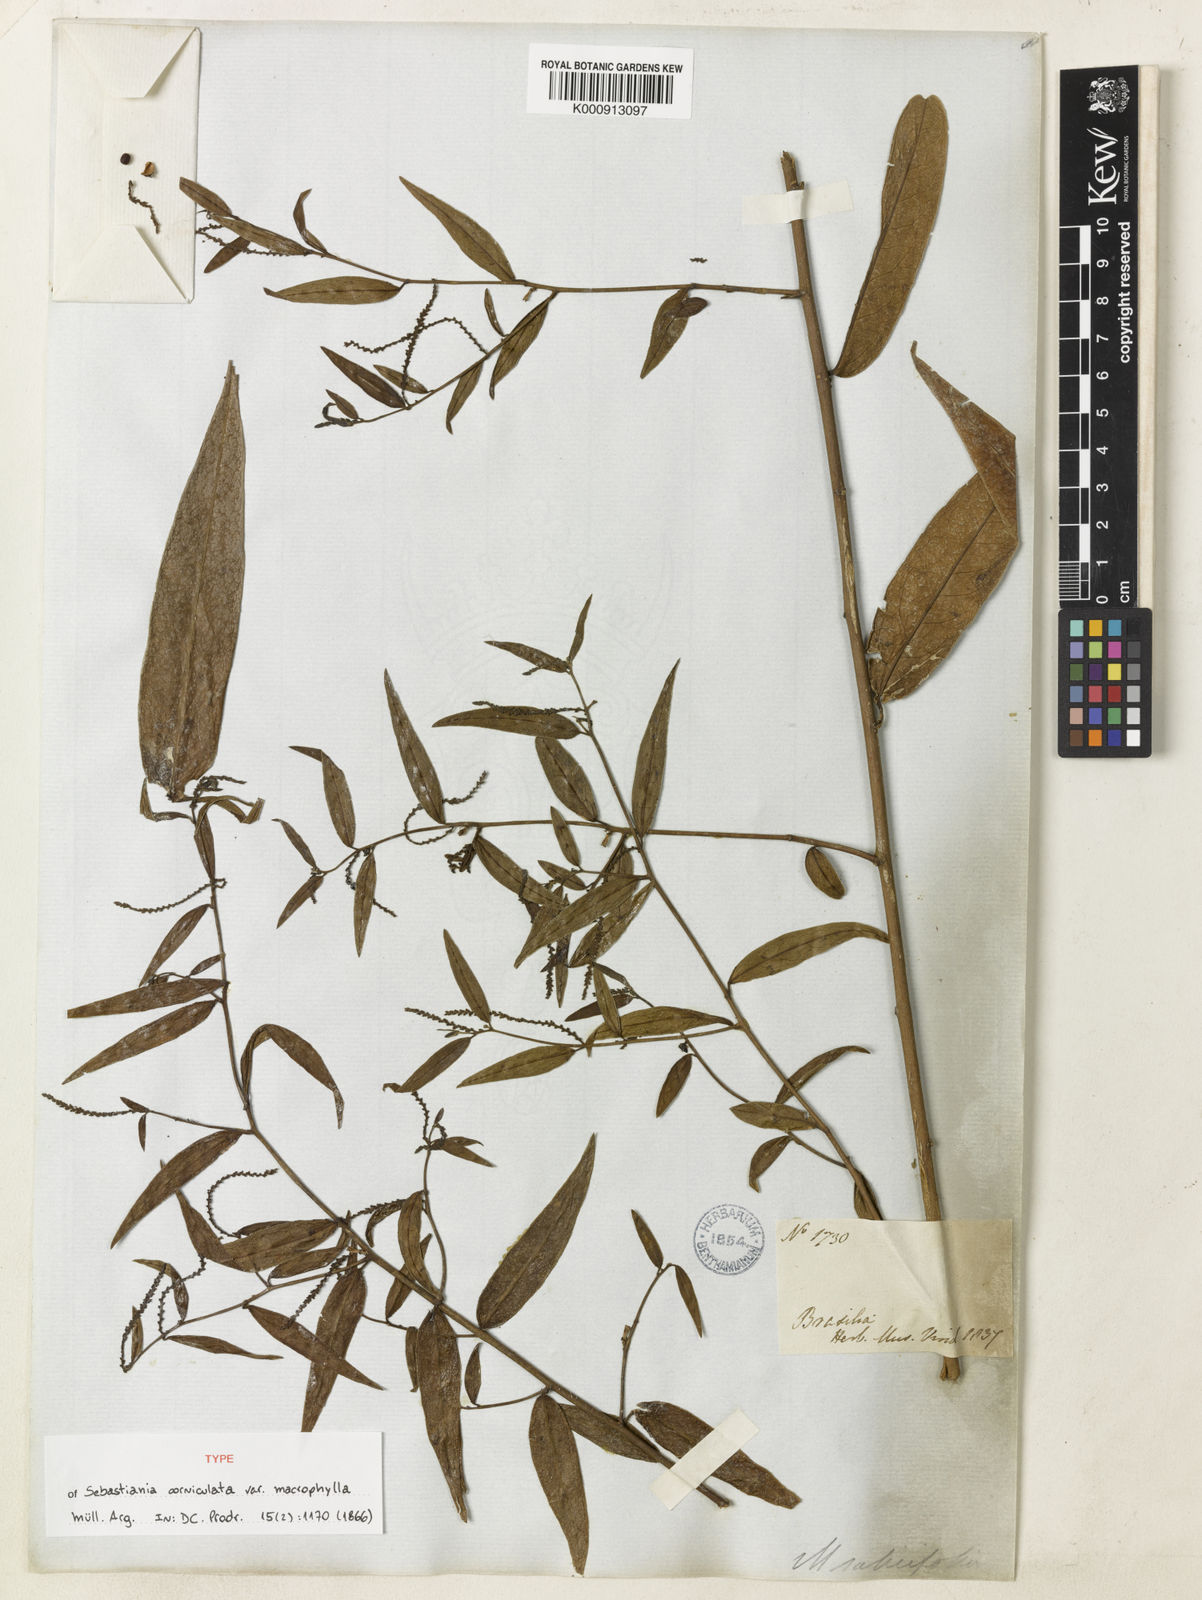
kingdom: Plantae
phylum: Tracheophyta
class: Magnoliopsida
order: Malpighiales
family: Euphorbiaceae
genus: Microstachys
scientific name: Microstachys hispida
